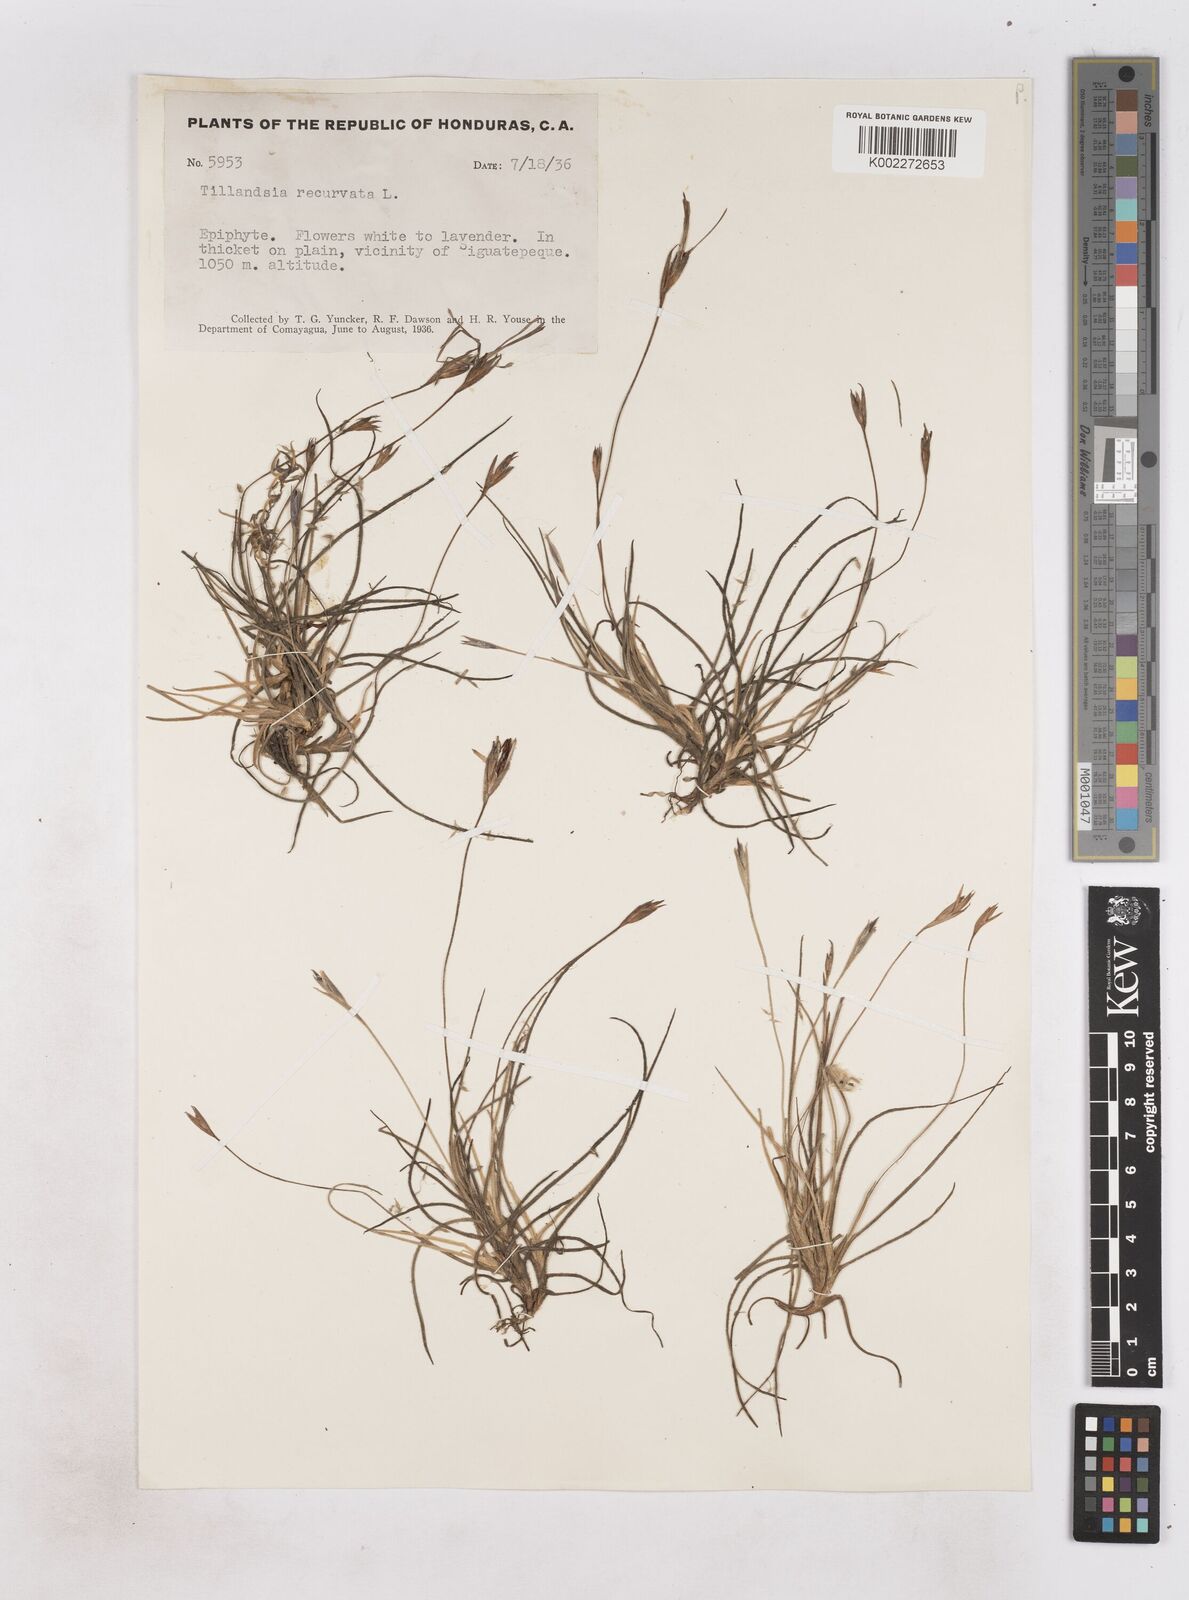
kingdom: Plantae
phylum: Tracheophyta
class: Liliopsida
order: Poales
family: Bromeliaceae
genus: Tillandsia
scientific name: Tillandsia recurvata
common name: Small ballmoss
